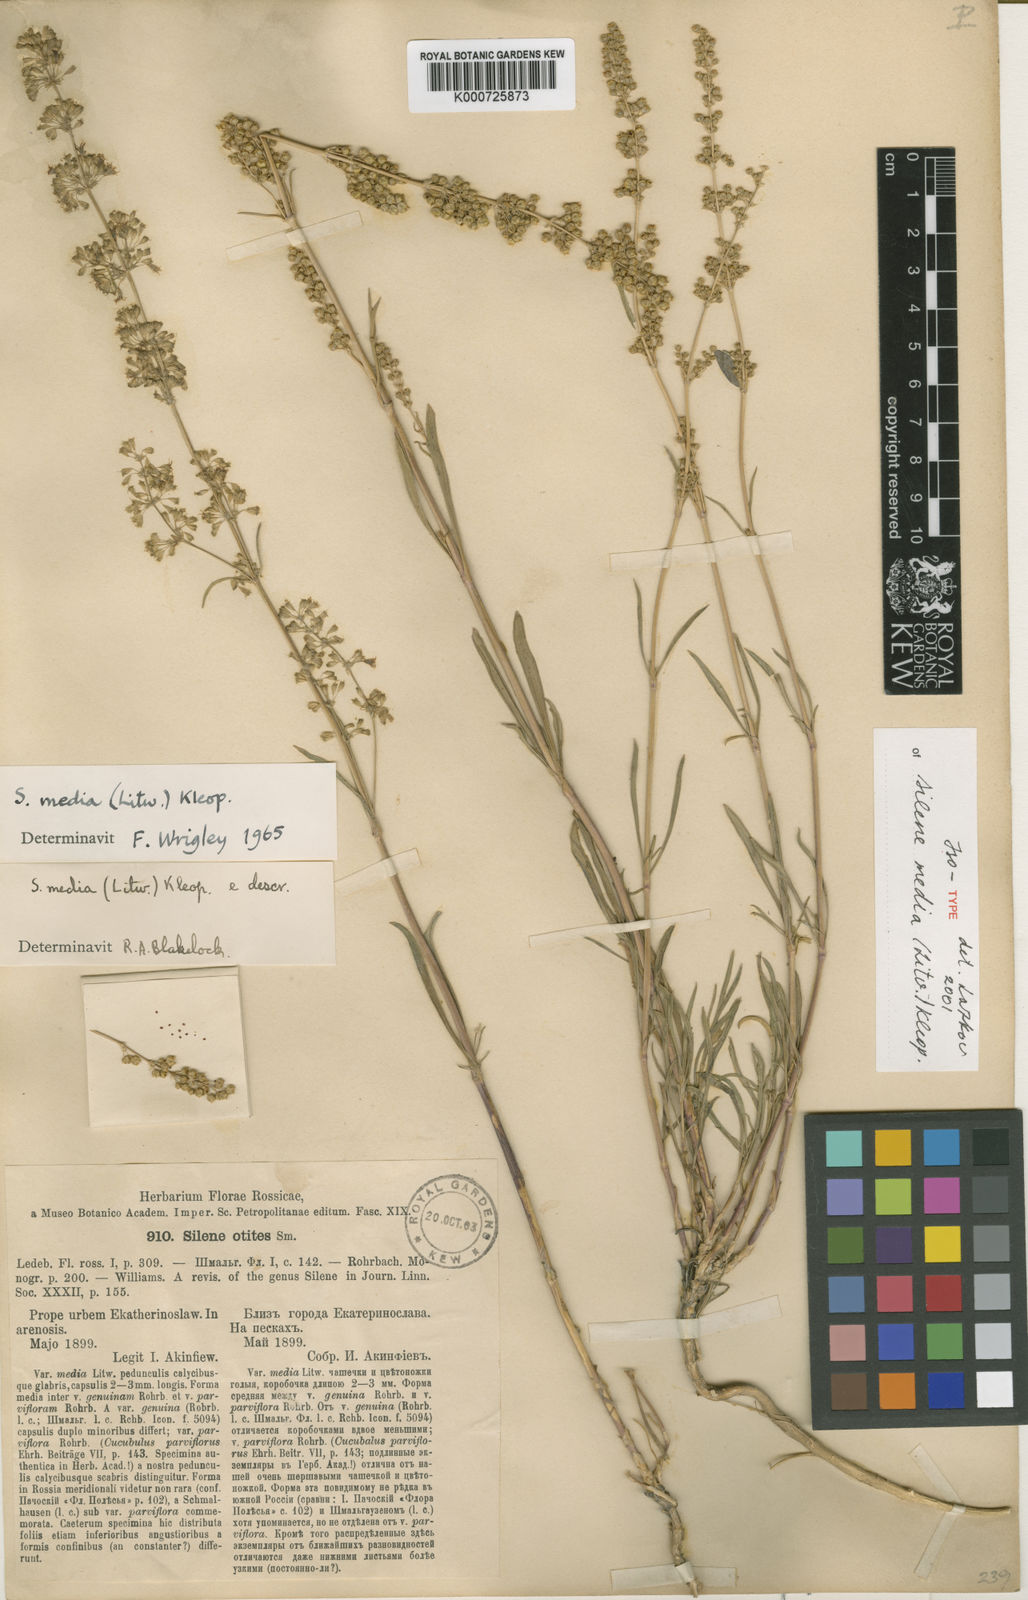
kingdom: Plantae
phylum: Tracheophyta
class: Magnoliopsida
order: Caryophyllales
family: Caryophyllaceae
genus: Silene
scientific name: Silene media
